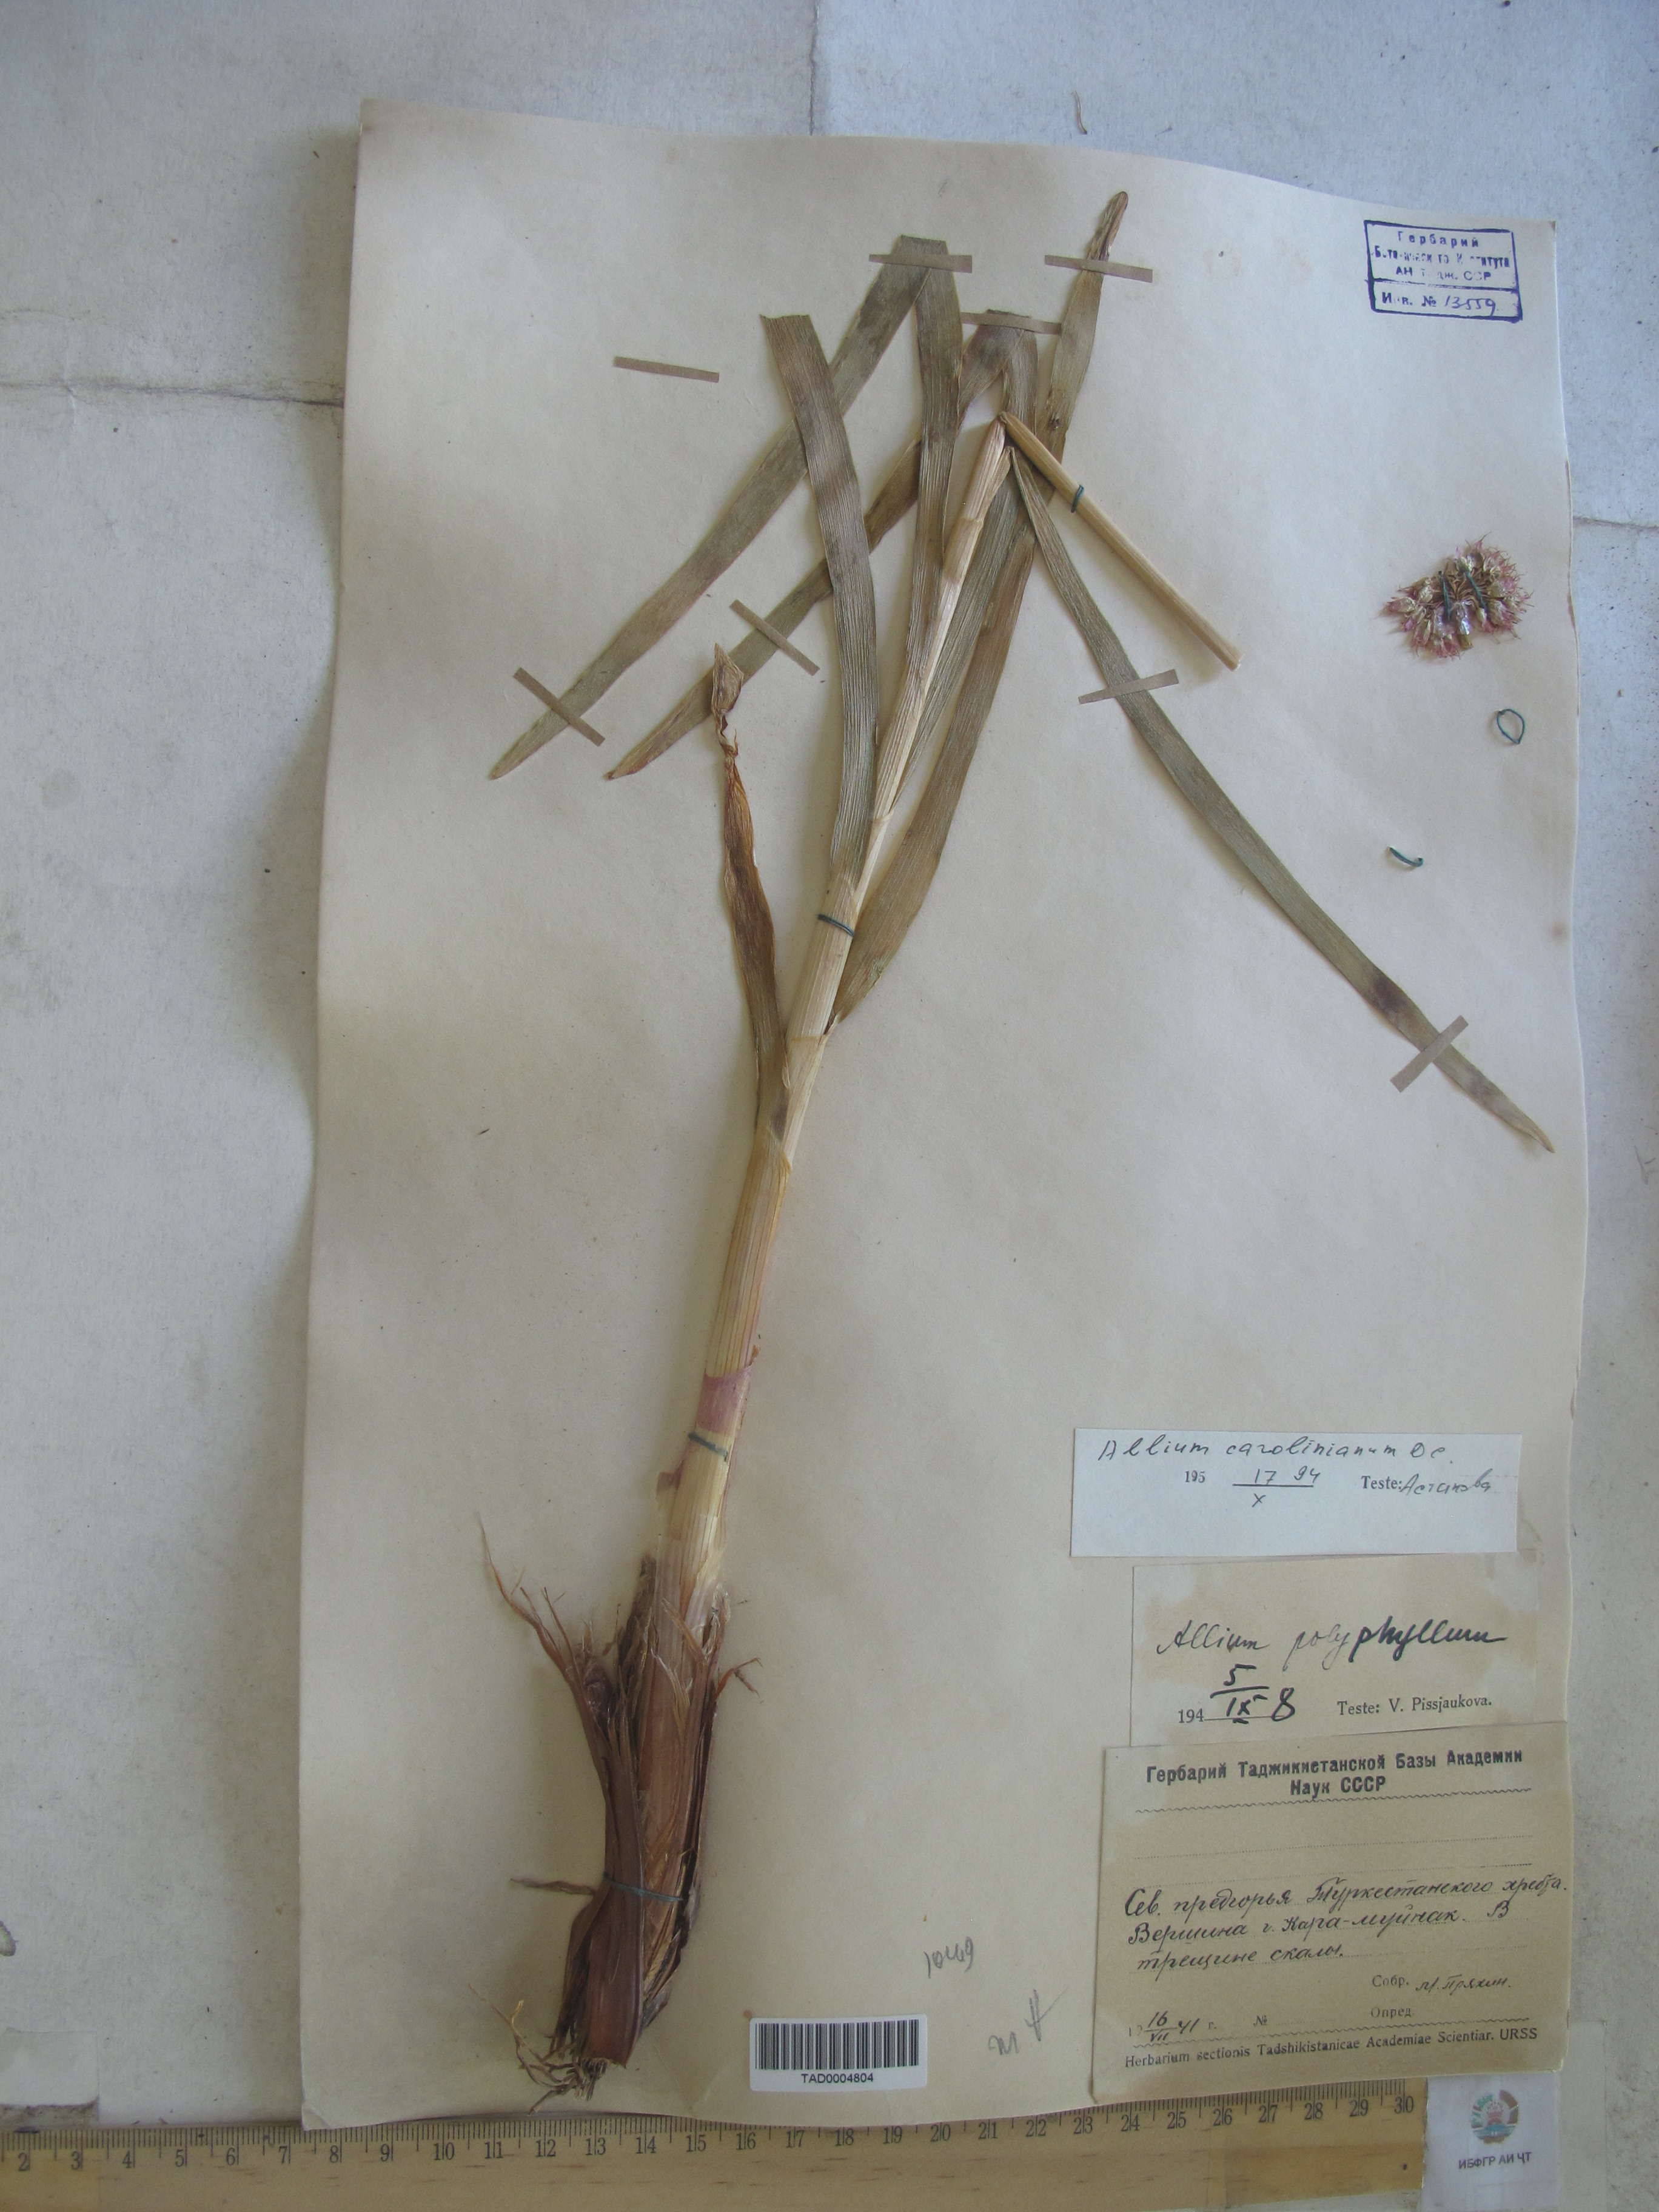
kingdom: Plantae
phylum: Tracheophyta
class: Liliopsida
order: Asparagales
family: Amaryllidaceae
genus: Allium
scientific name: Allium carolinianum
